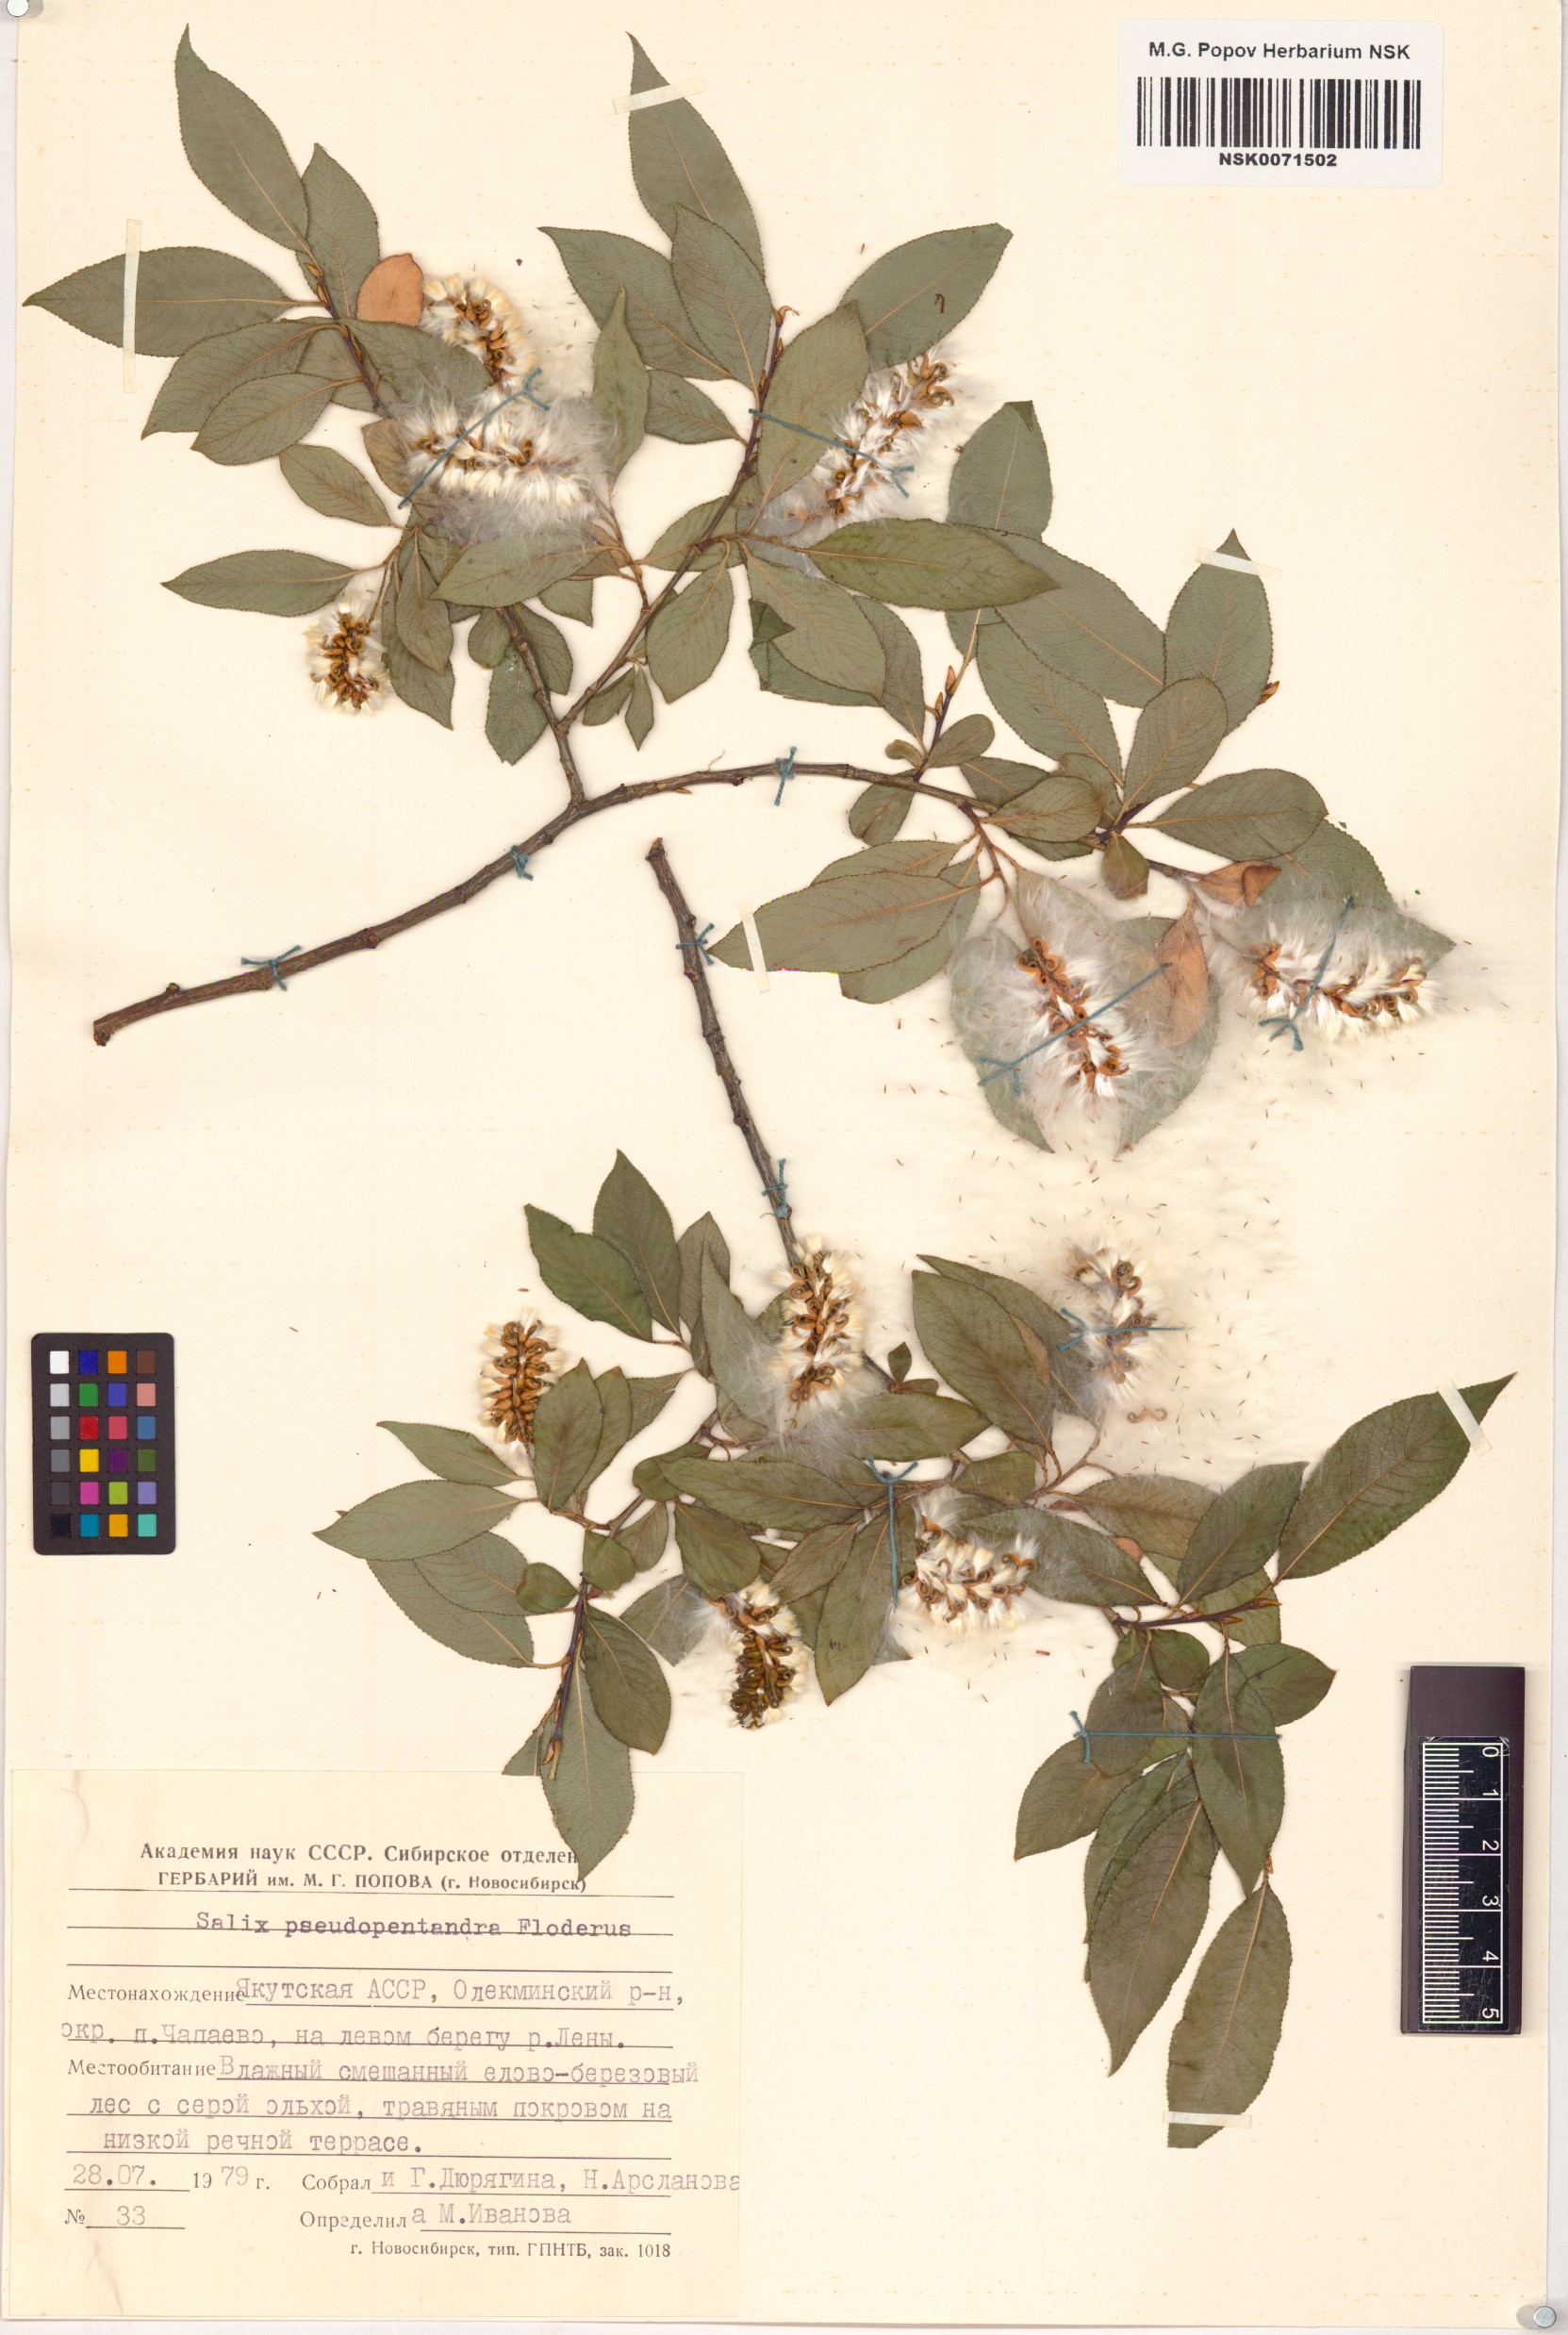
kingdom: Plantae
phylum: Tracheophyta
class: Magnoliopsida
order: Malpighiales
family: Salicaceae
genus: Salix
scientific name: Salix pseudopentandra
